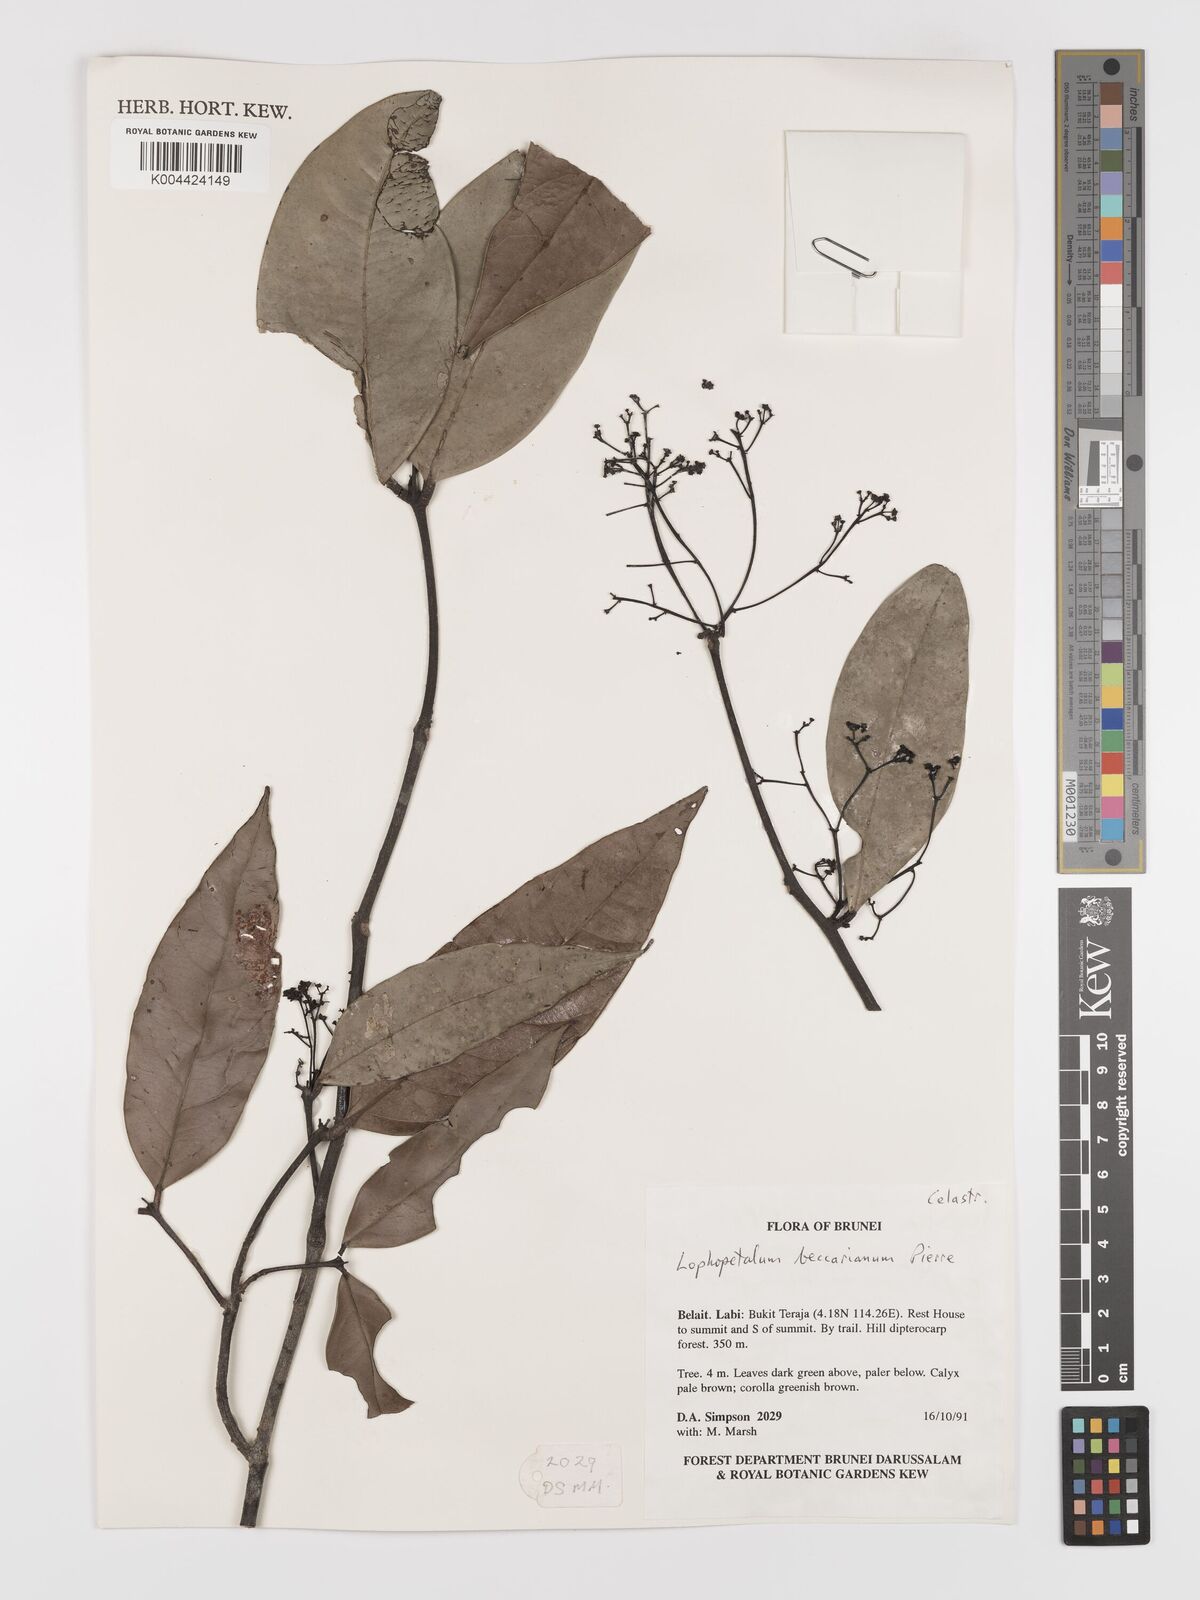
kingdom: Plantae
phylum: Tracheophyta
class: Magnoliopsida
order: Celastrales
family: Celastraceae
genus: Lophopetalum
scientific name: Lophopetalum beccarianum
